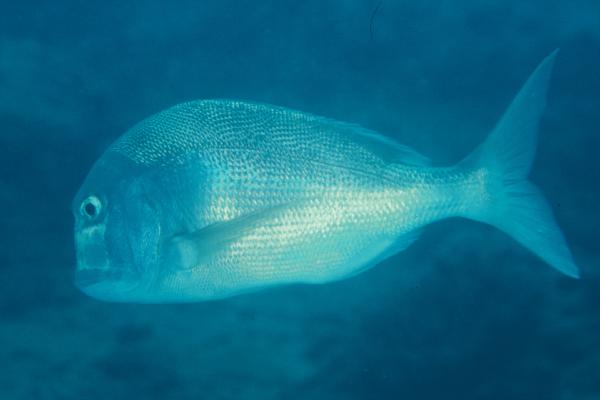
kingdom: Animalia
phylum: Chordata
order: Perciformes
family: Sparidae
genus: Chrysoblephus
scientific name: Chrysoblephus anglicus
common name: Englishman
